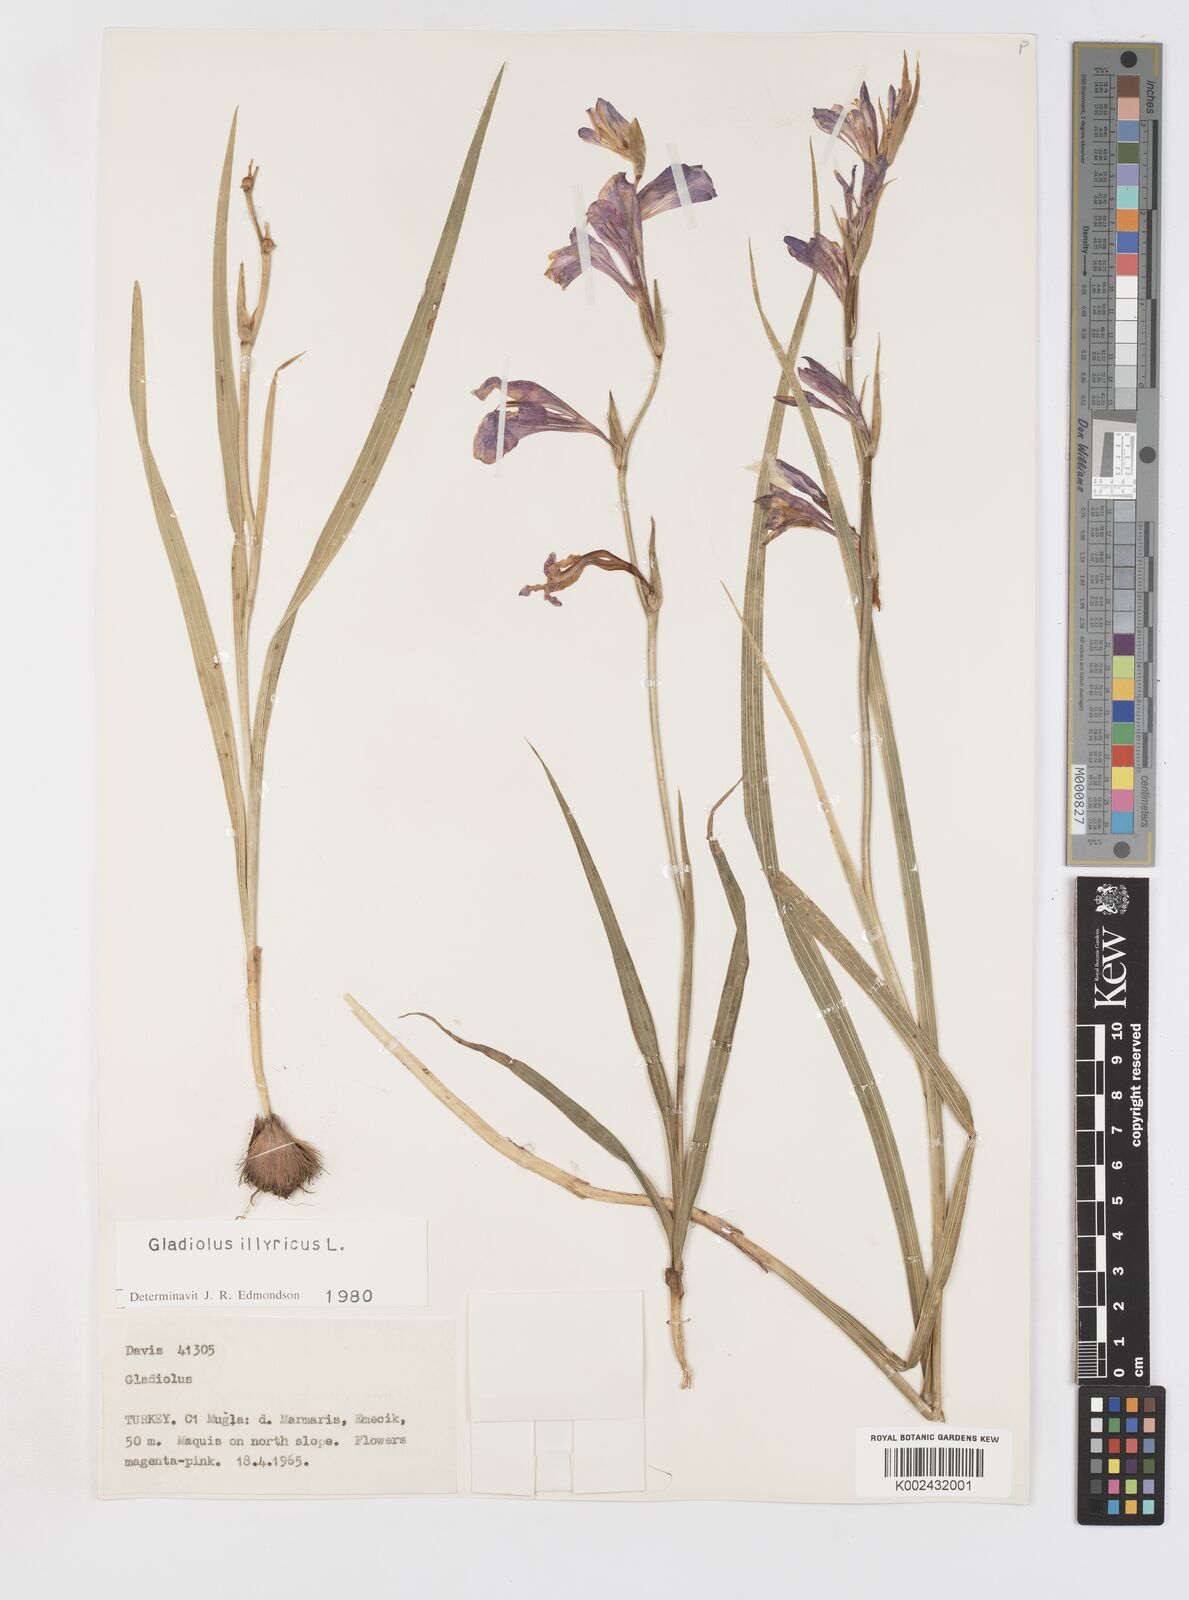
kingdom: Plantae
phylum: Tracheophyta
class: Liliopsida
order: Asparagales
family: Iridaceae
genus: Gladiolus
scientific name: Gladiolus illyricus
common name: Wild gladiolus
